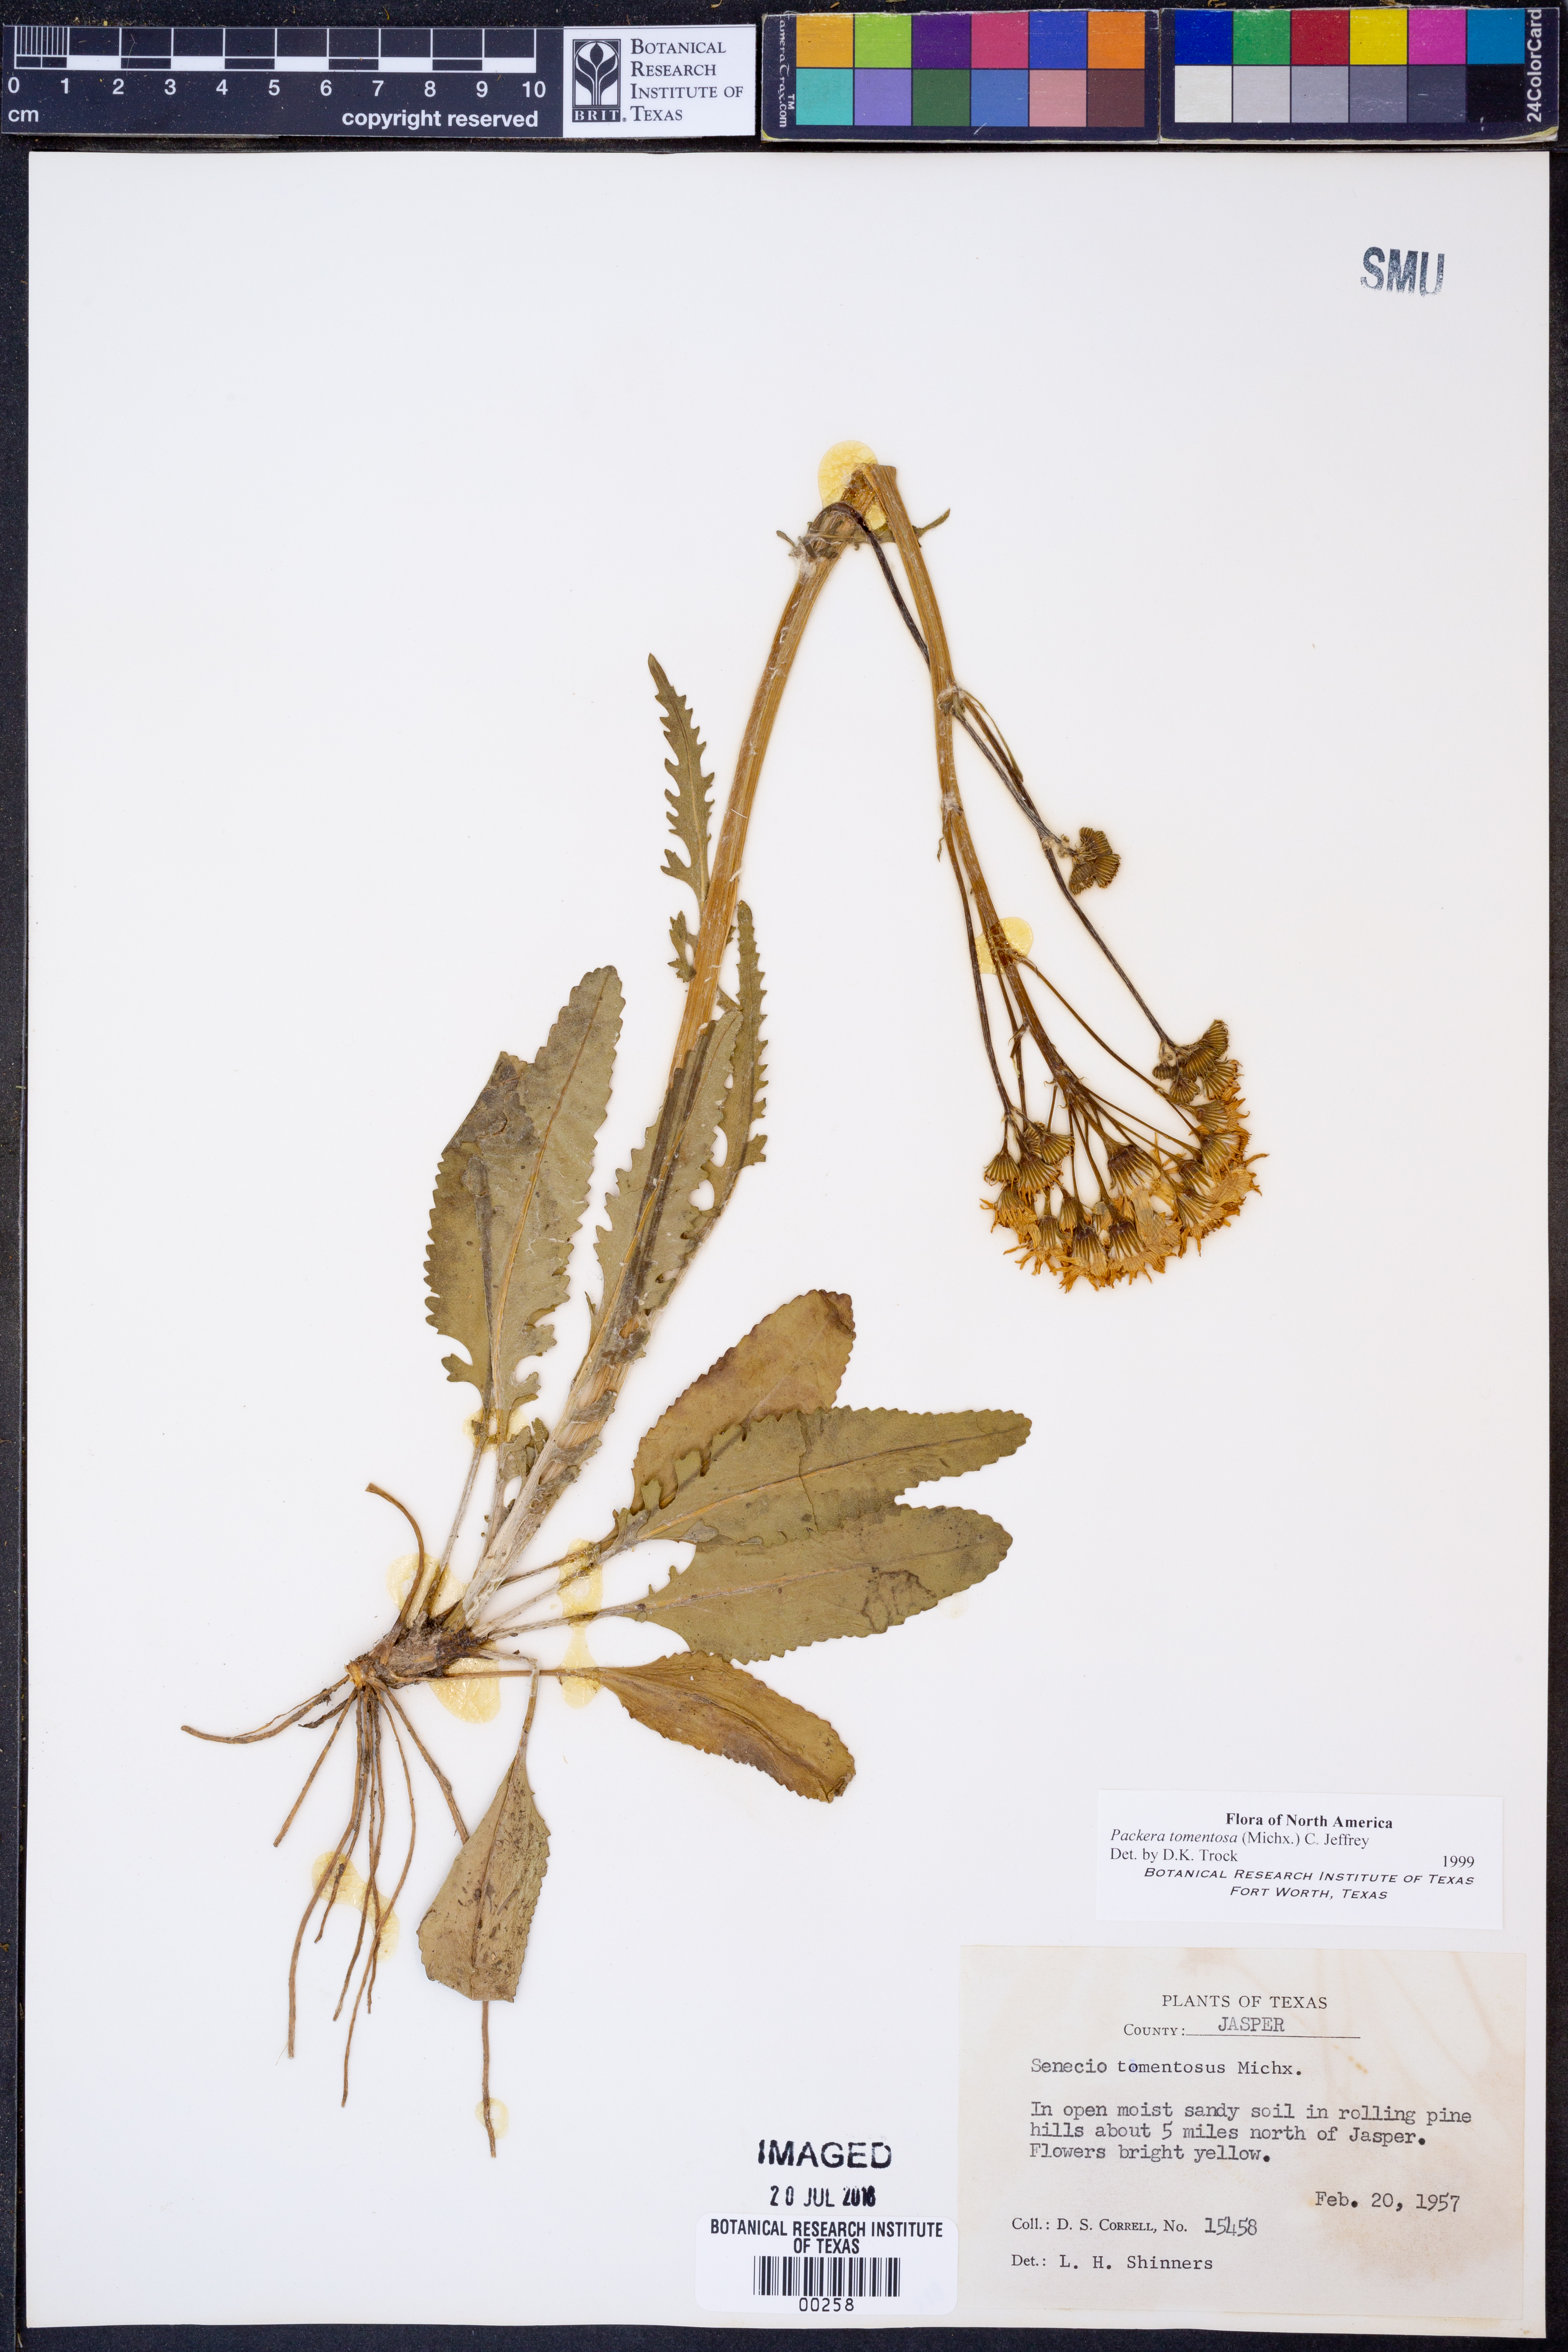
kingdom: Plantae
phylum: Tracheophyta
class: Magnoliopsida
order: Asterales
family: Asteraceae
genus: Packera
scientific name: Packera dubia
